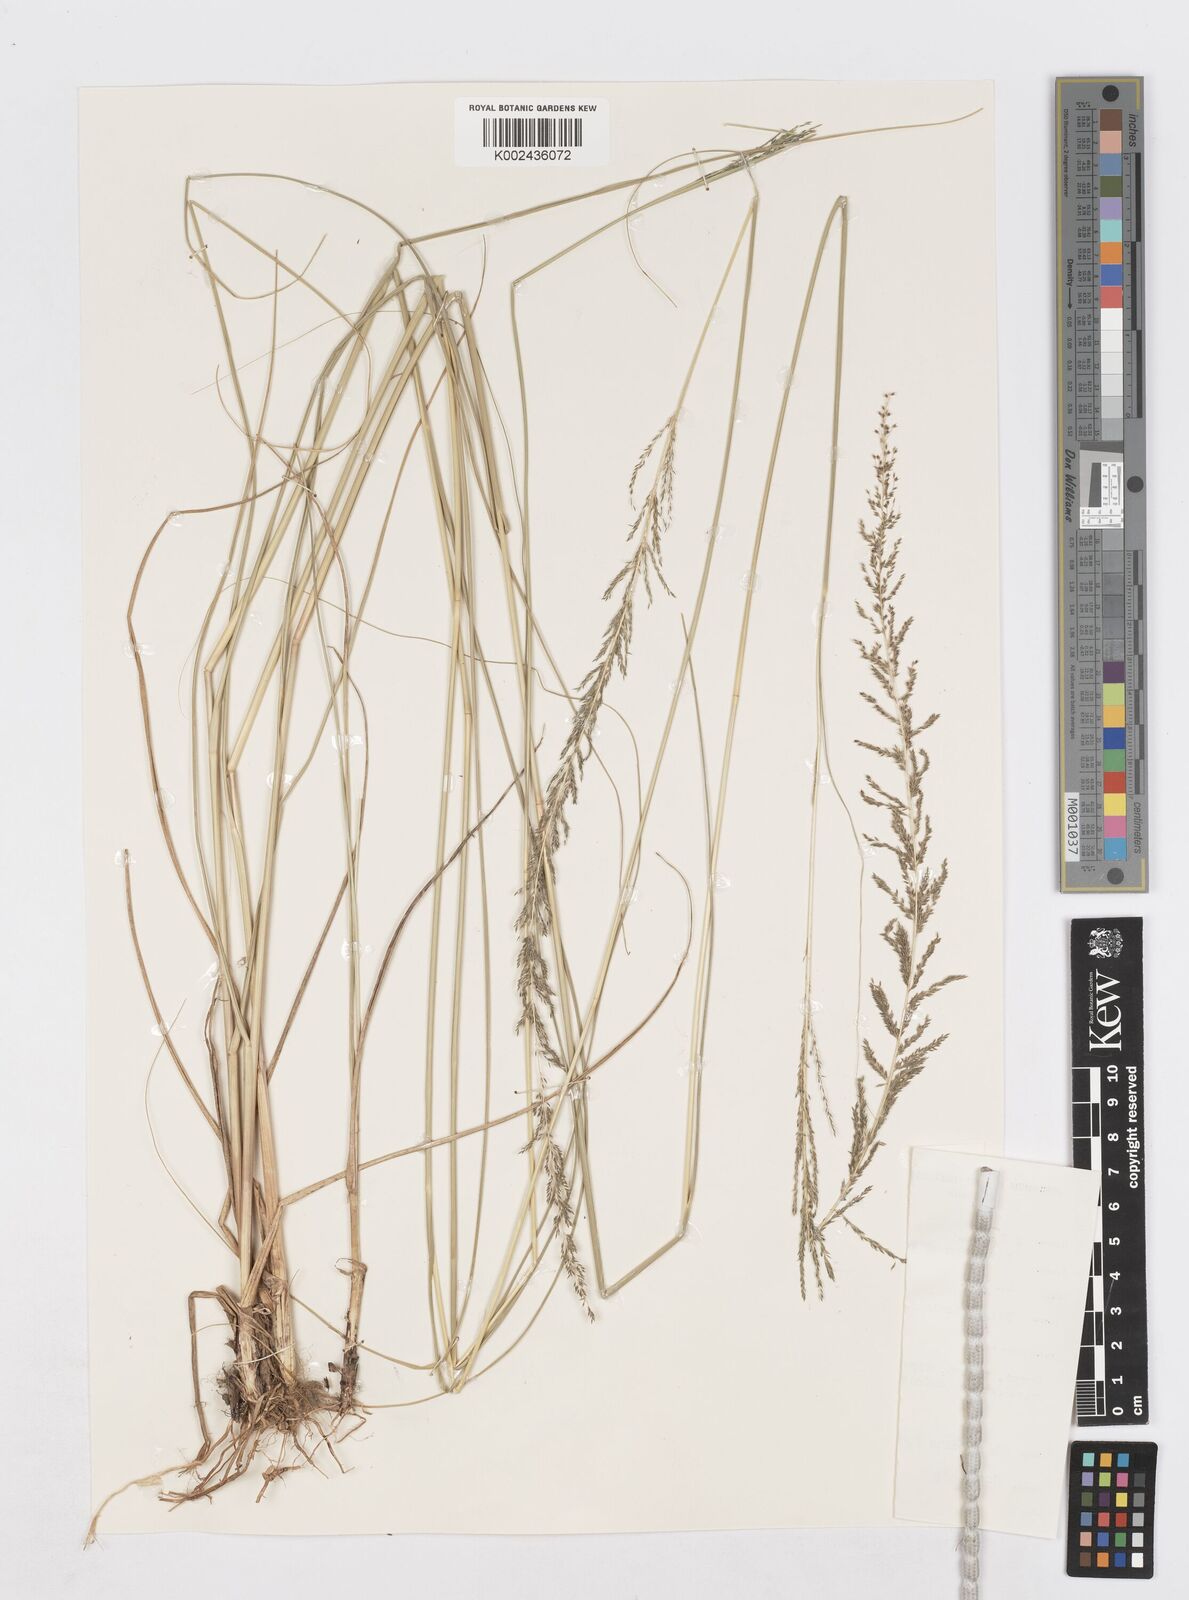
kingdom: Plantae
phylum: Tracheophyta
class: Liliopsida
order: Poales
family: Poaceae
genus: Sporobolus
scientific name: Sporobolus pyramidalis
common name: West indian dropseed
